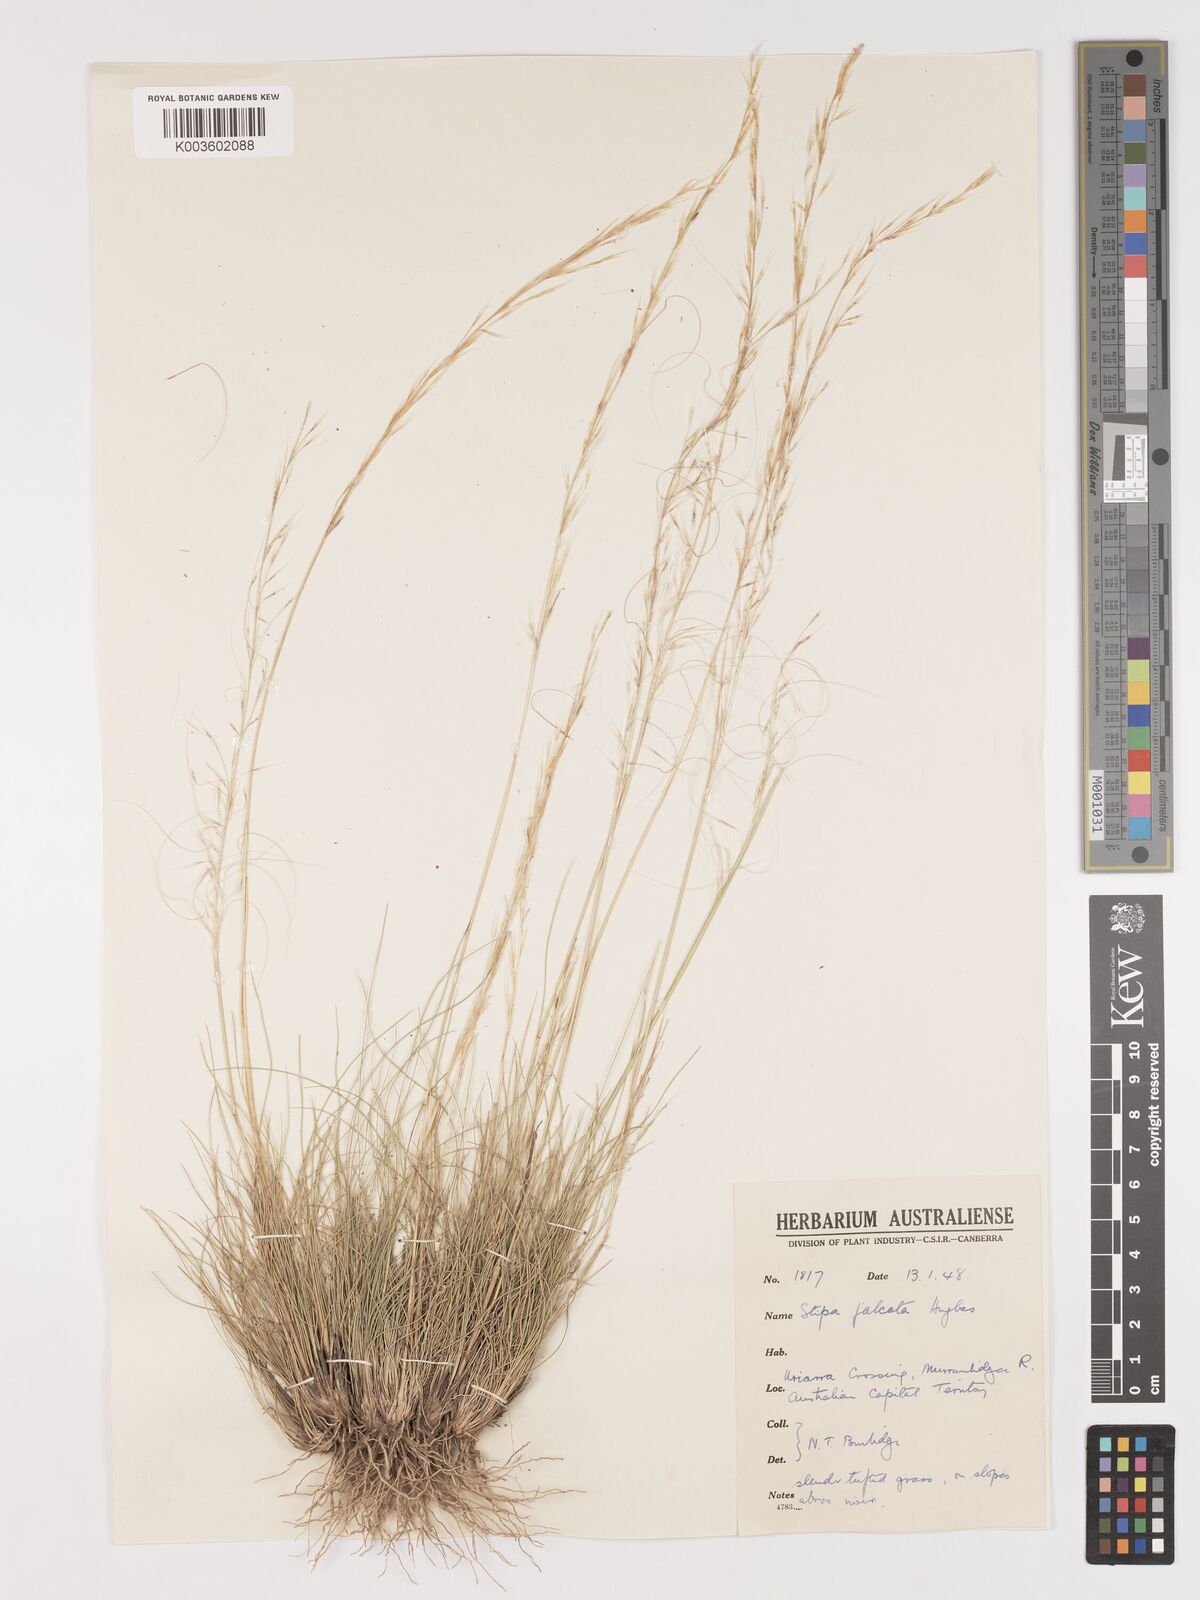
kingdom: Plantae
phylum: Tracheophyta
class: Liliopsida
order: Poales
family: Poaceae
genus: Austrostipa
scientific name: Austrostipa scabra
